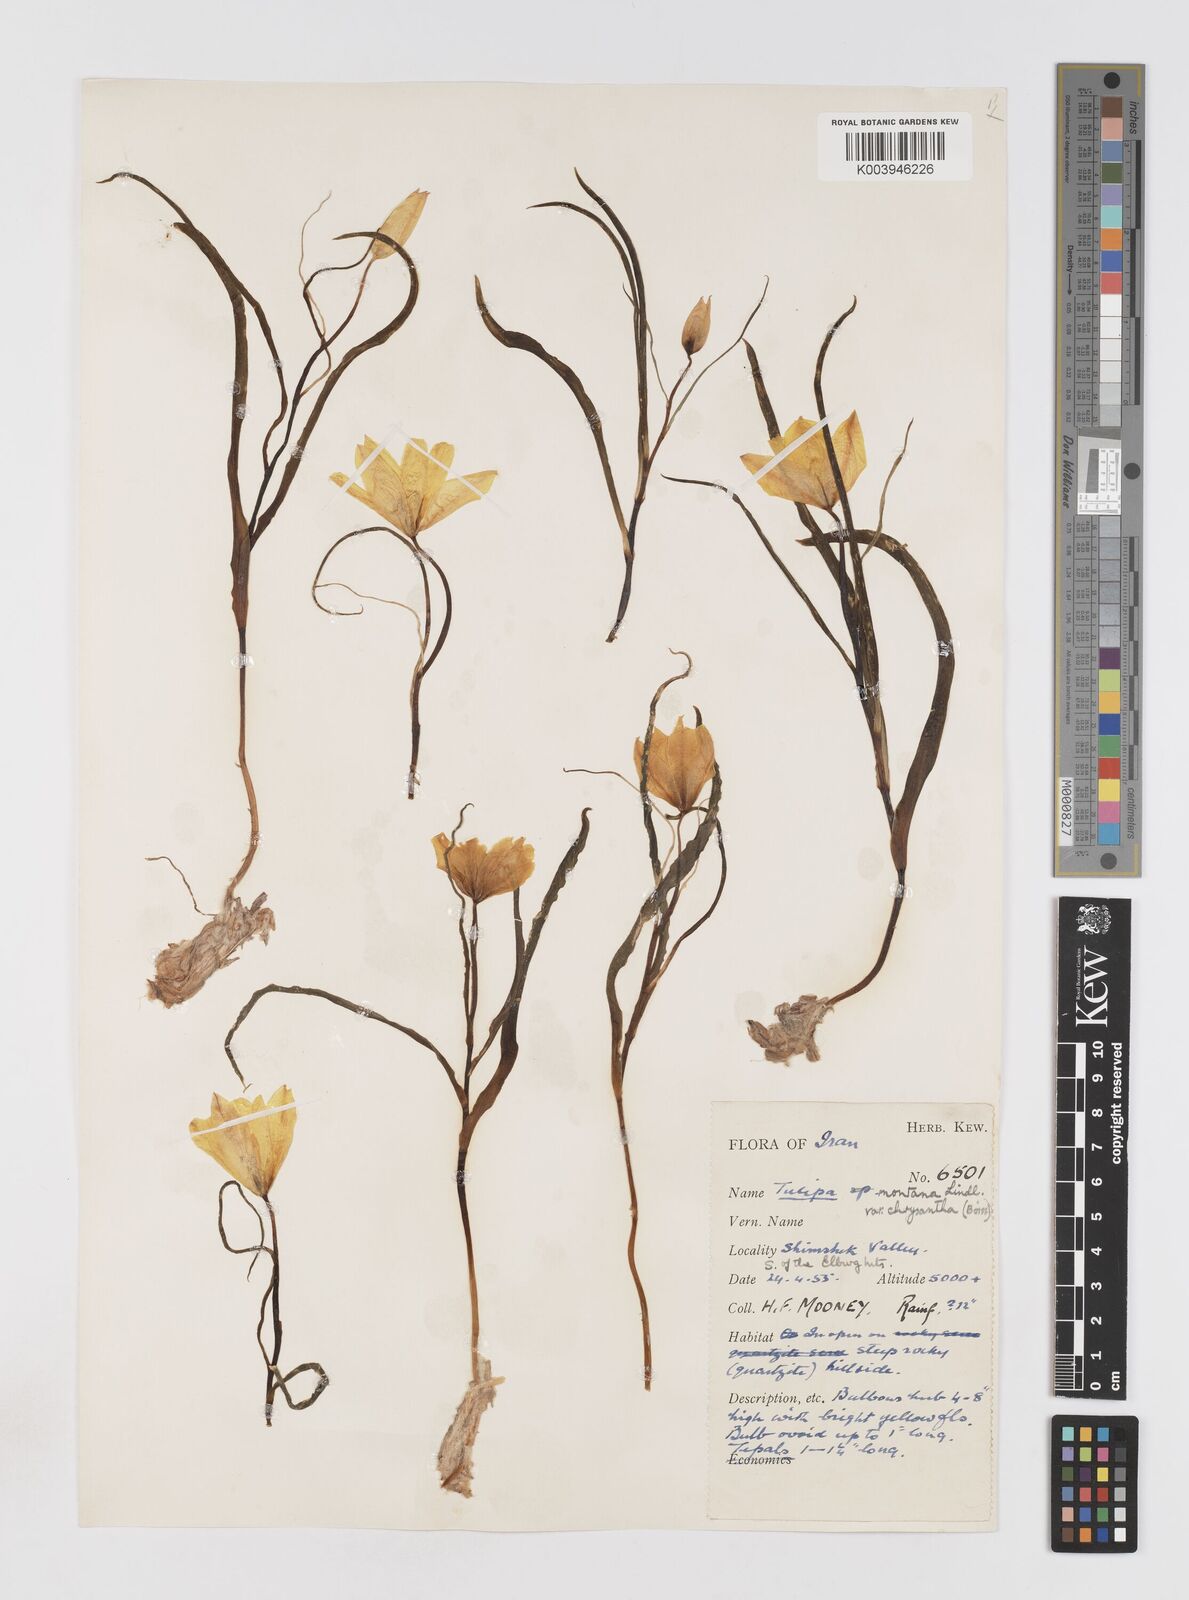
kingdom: Plantae
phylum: Tracheophyta
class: Liliopsida
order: Liliales
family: Liliaceae
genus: Tulipa
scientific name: Tulipa montana
